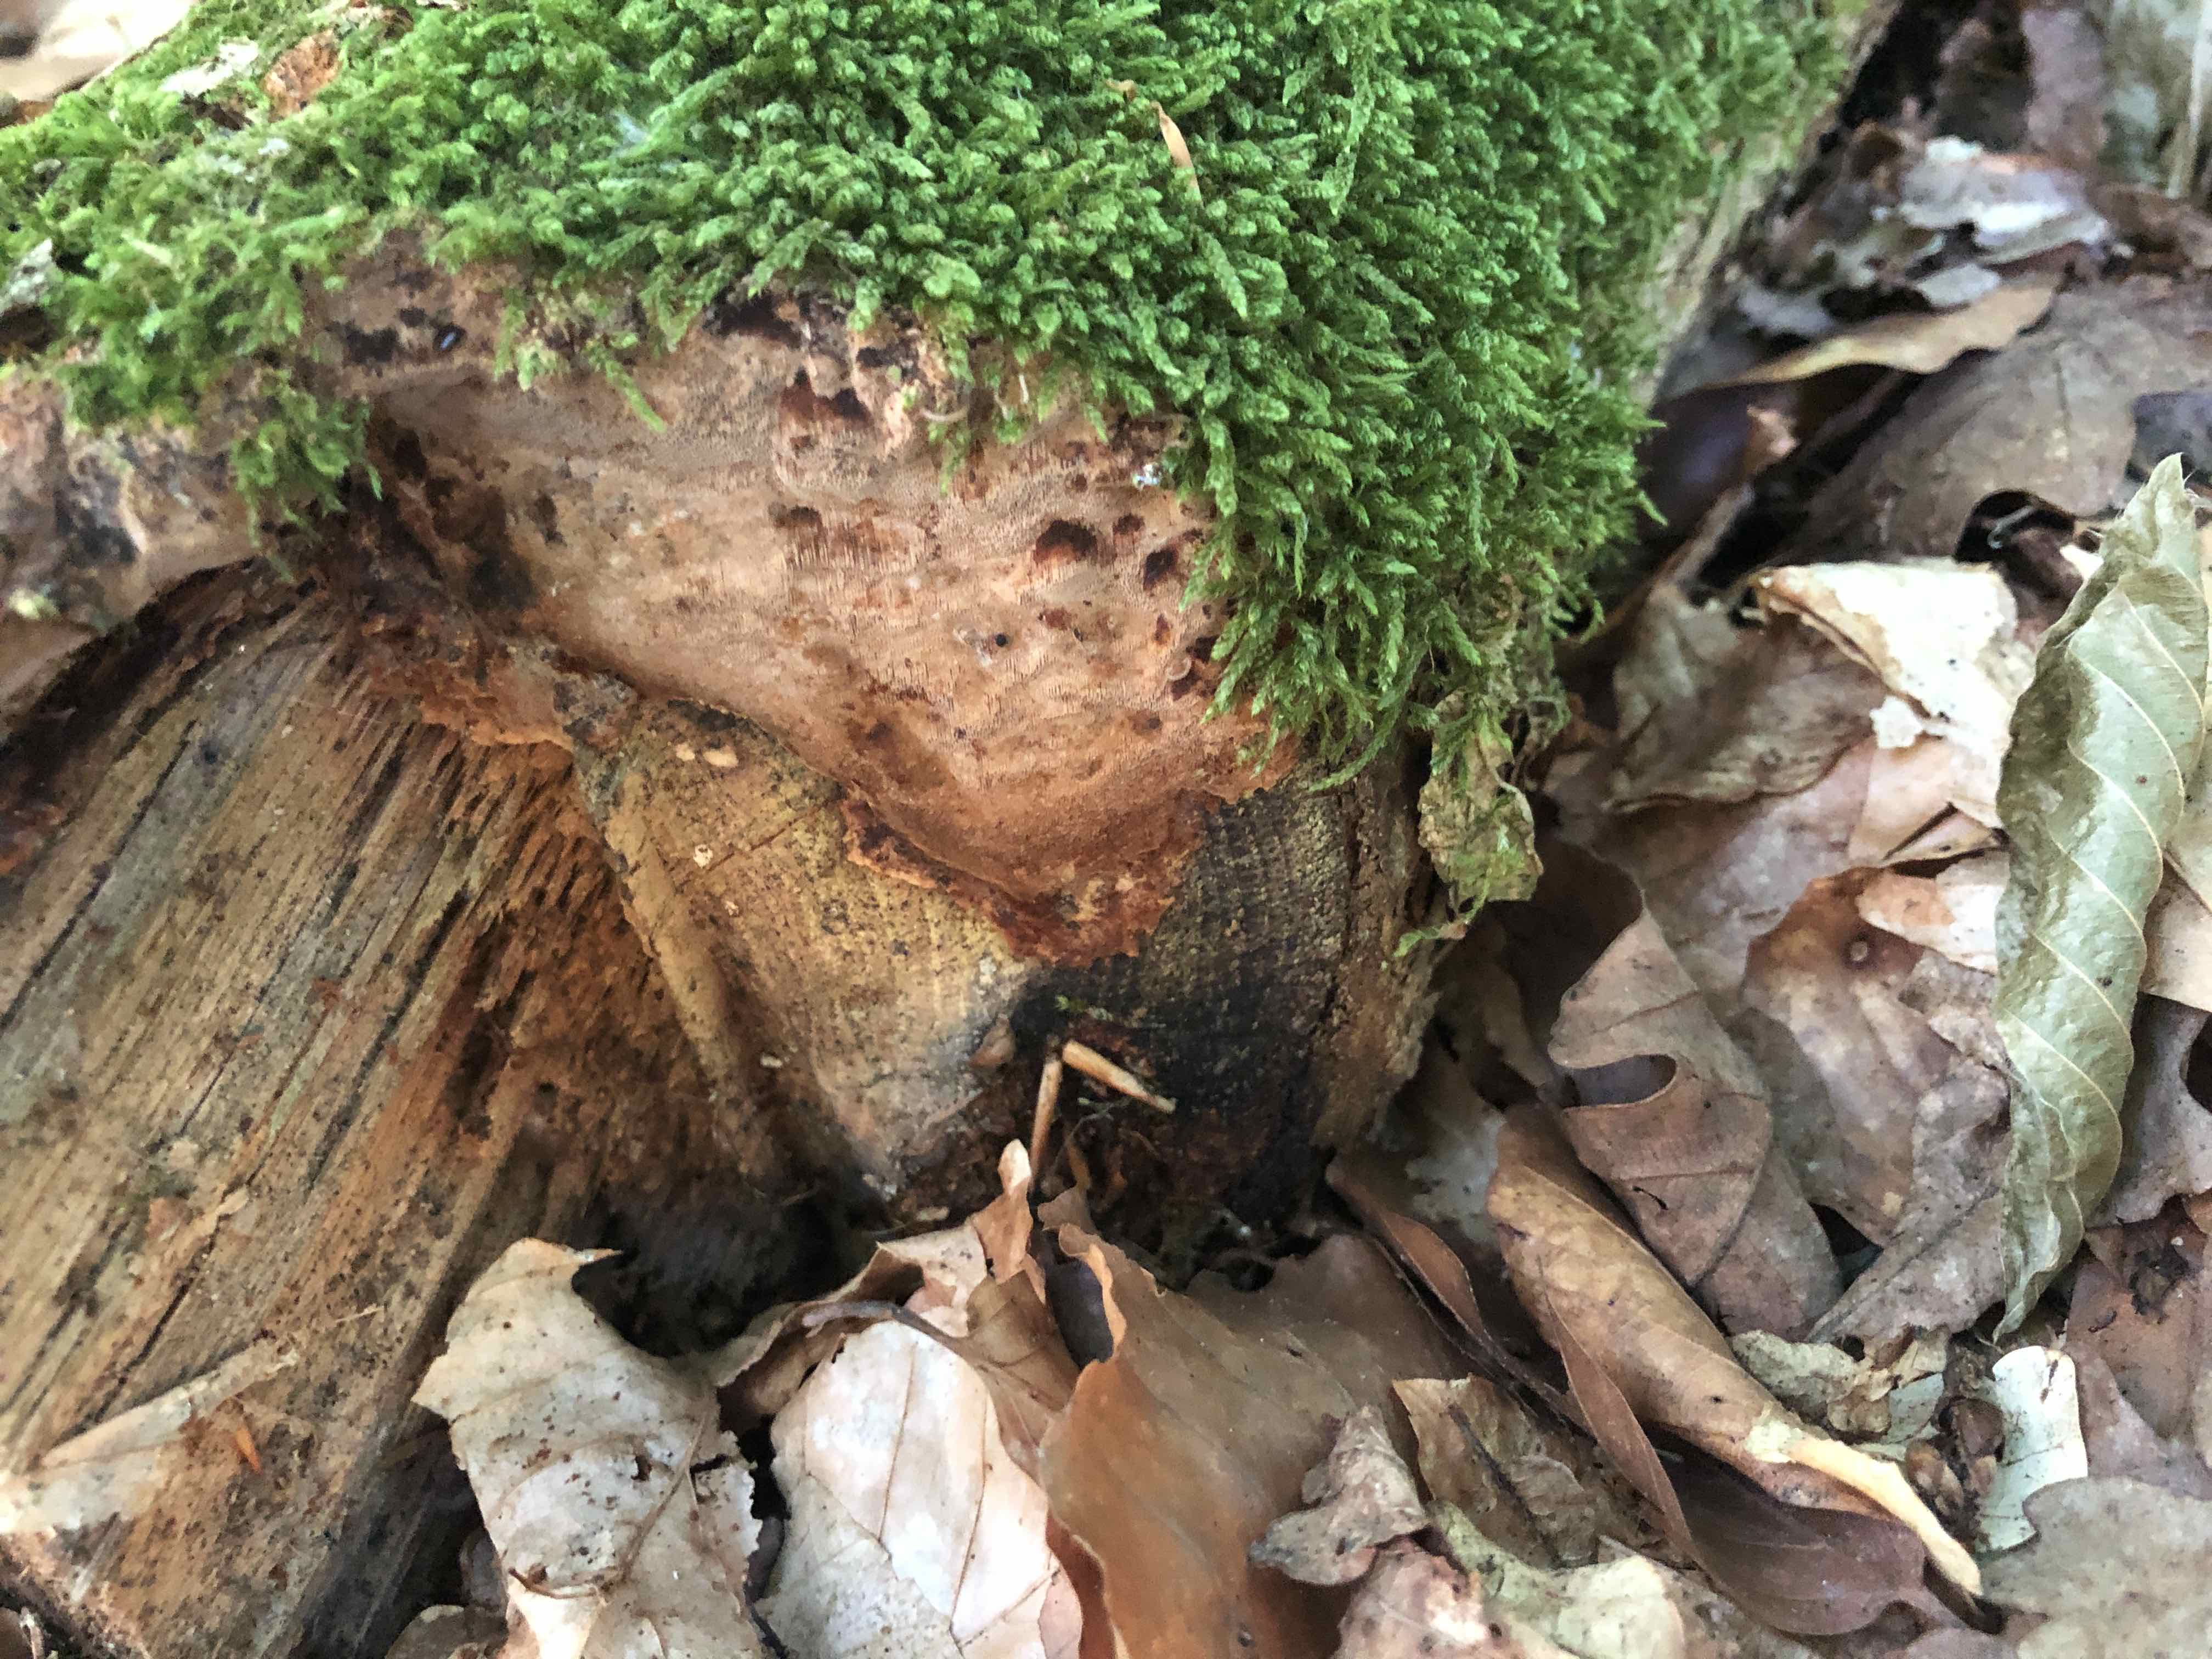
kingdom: Fungi
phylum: Basidiomycota
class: Agaricomycetes
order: Hymenochaetales
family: Hymenochaetaceae
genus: Fuscoporia
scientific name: Fuscoporia ferrea
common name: skorpe-ildporesvamp
